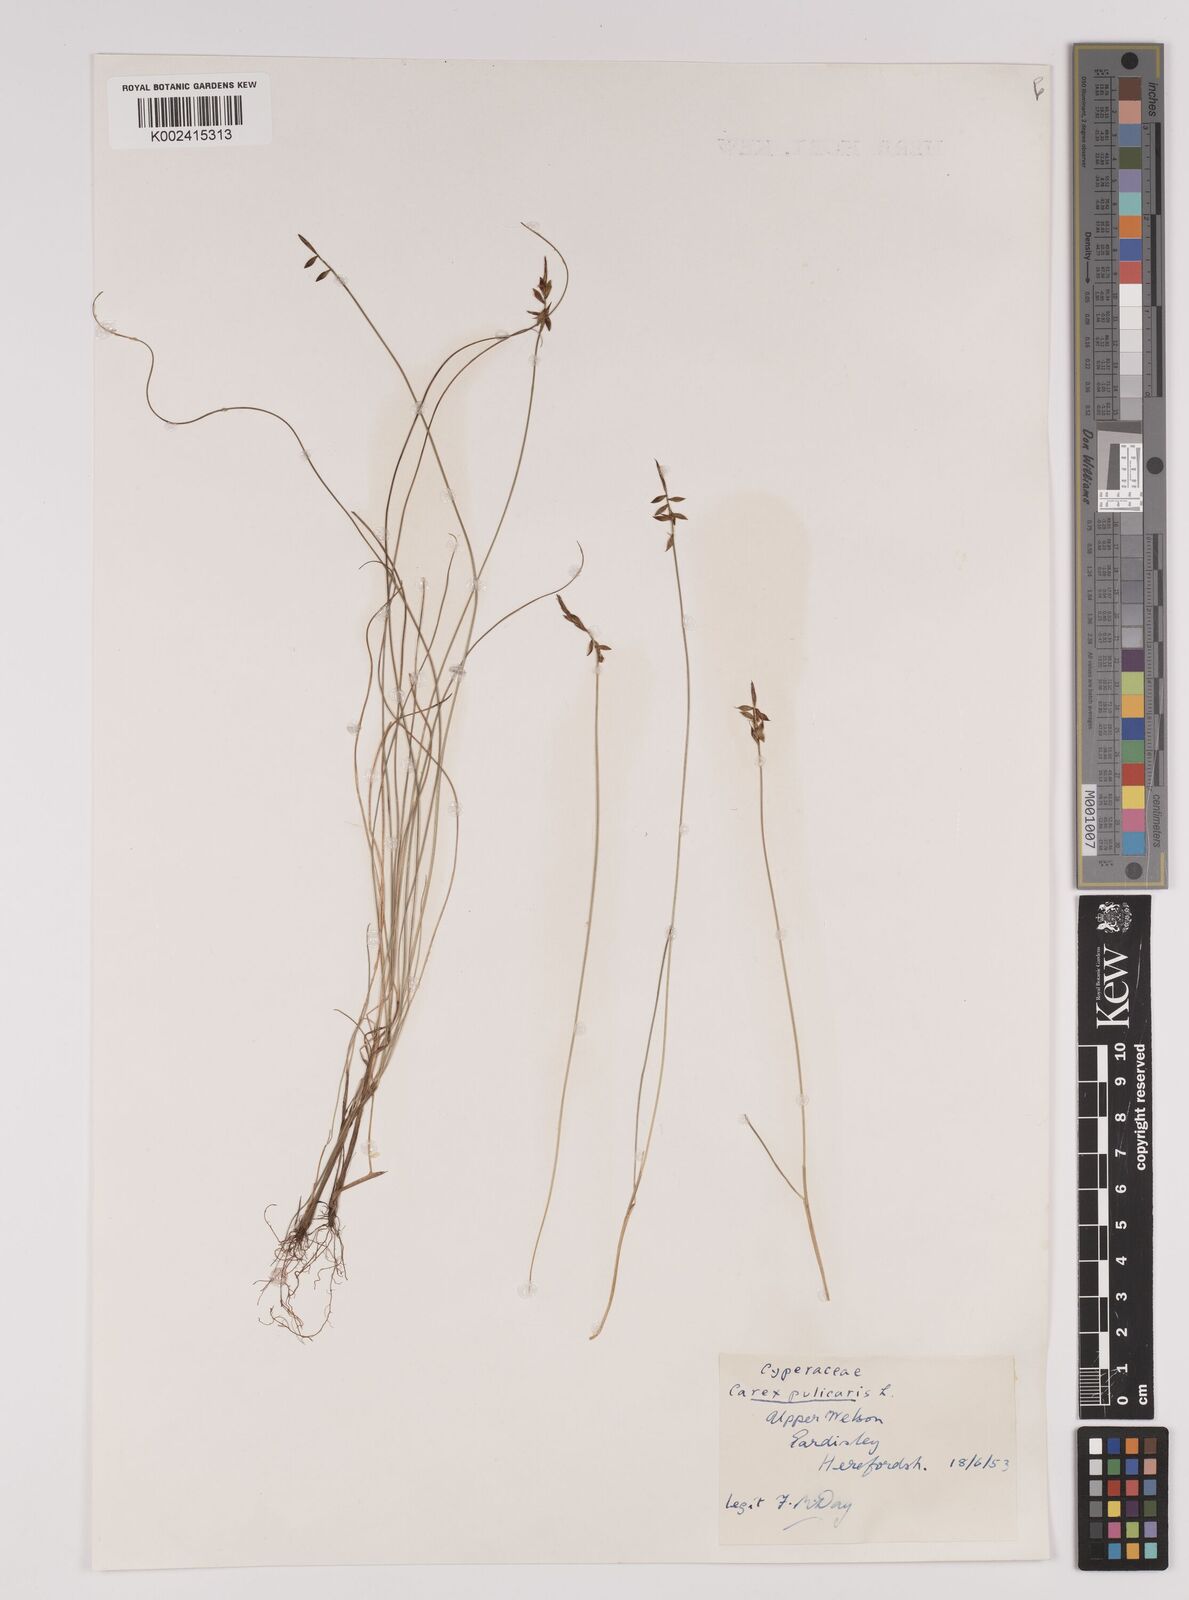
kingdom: Plantae
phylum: Tracheophyta
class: Liliopsida
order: Poales
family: Cyperaceae
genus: Carex
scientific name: Carex pulicaris
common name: Flea sedge
